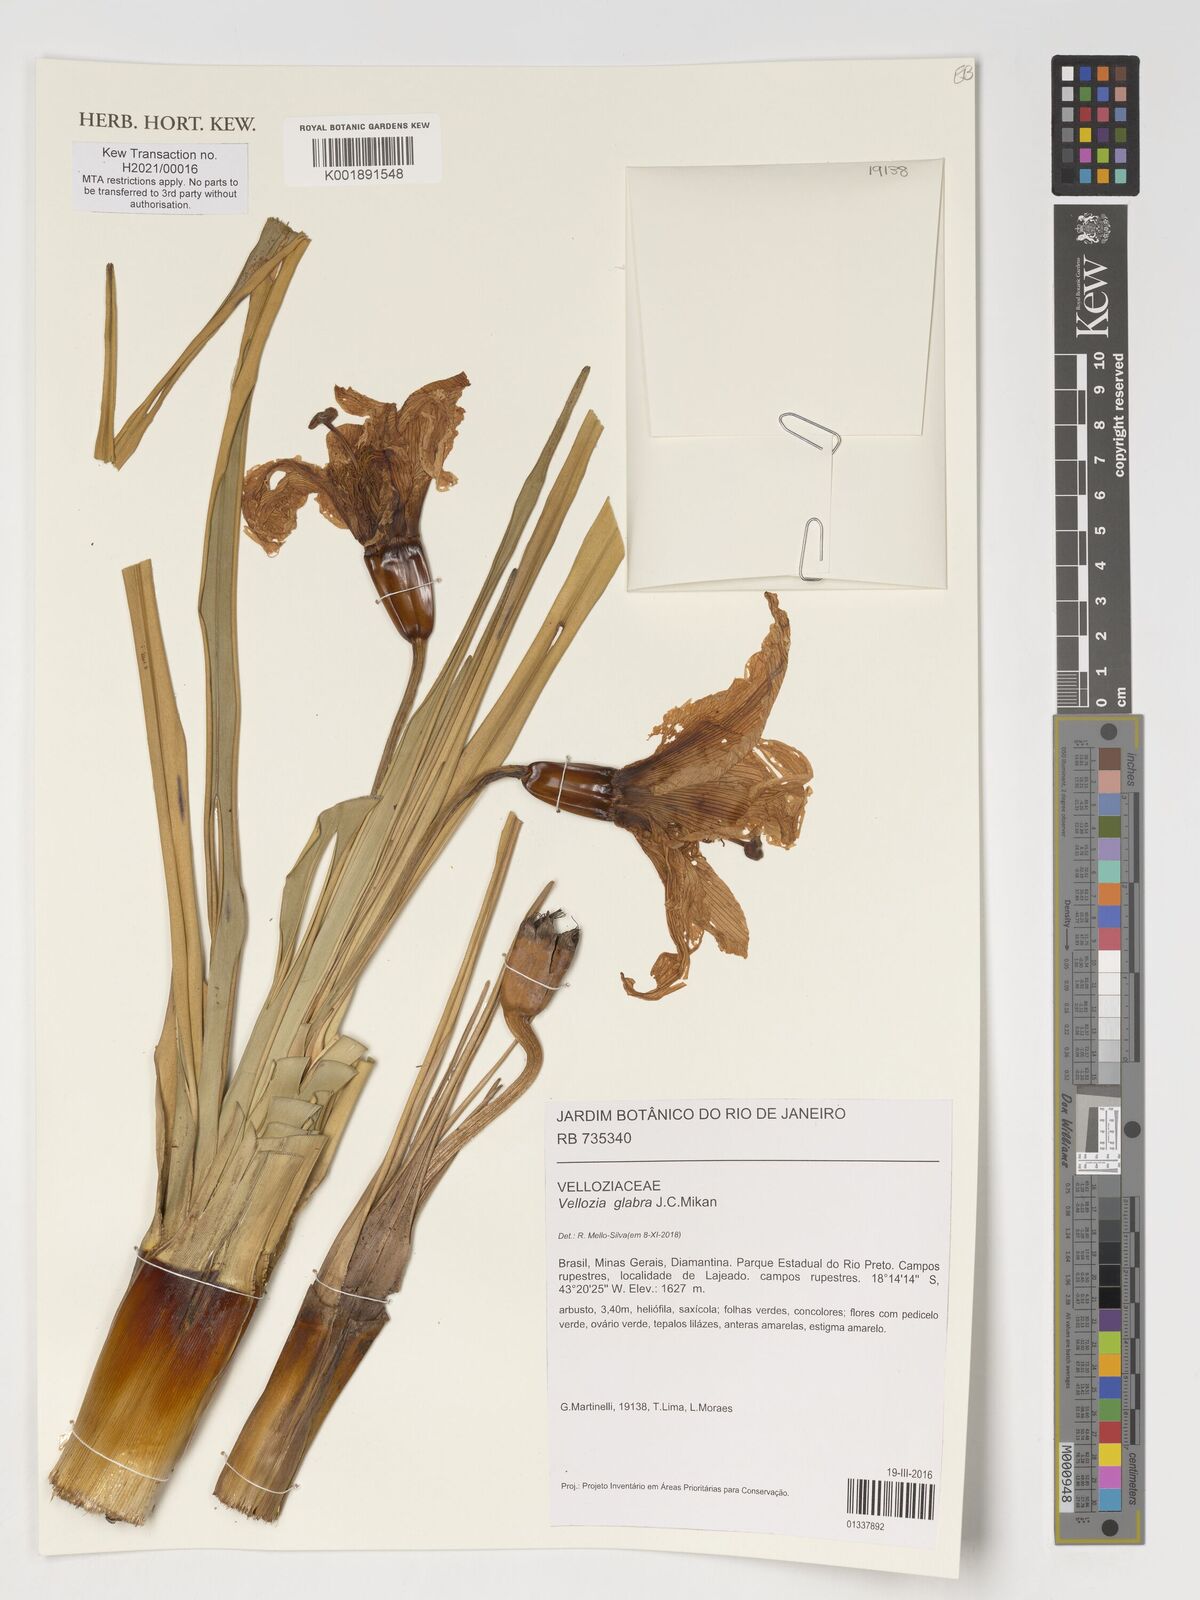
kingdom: Plantae
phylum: Tracheophyta
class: Liliopsida
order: Pandanales
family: Velloziaceae
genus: Vellozia
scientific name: Vellozia glabra
